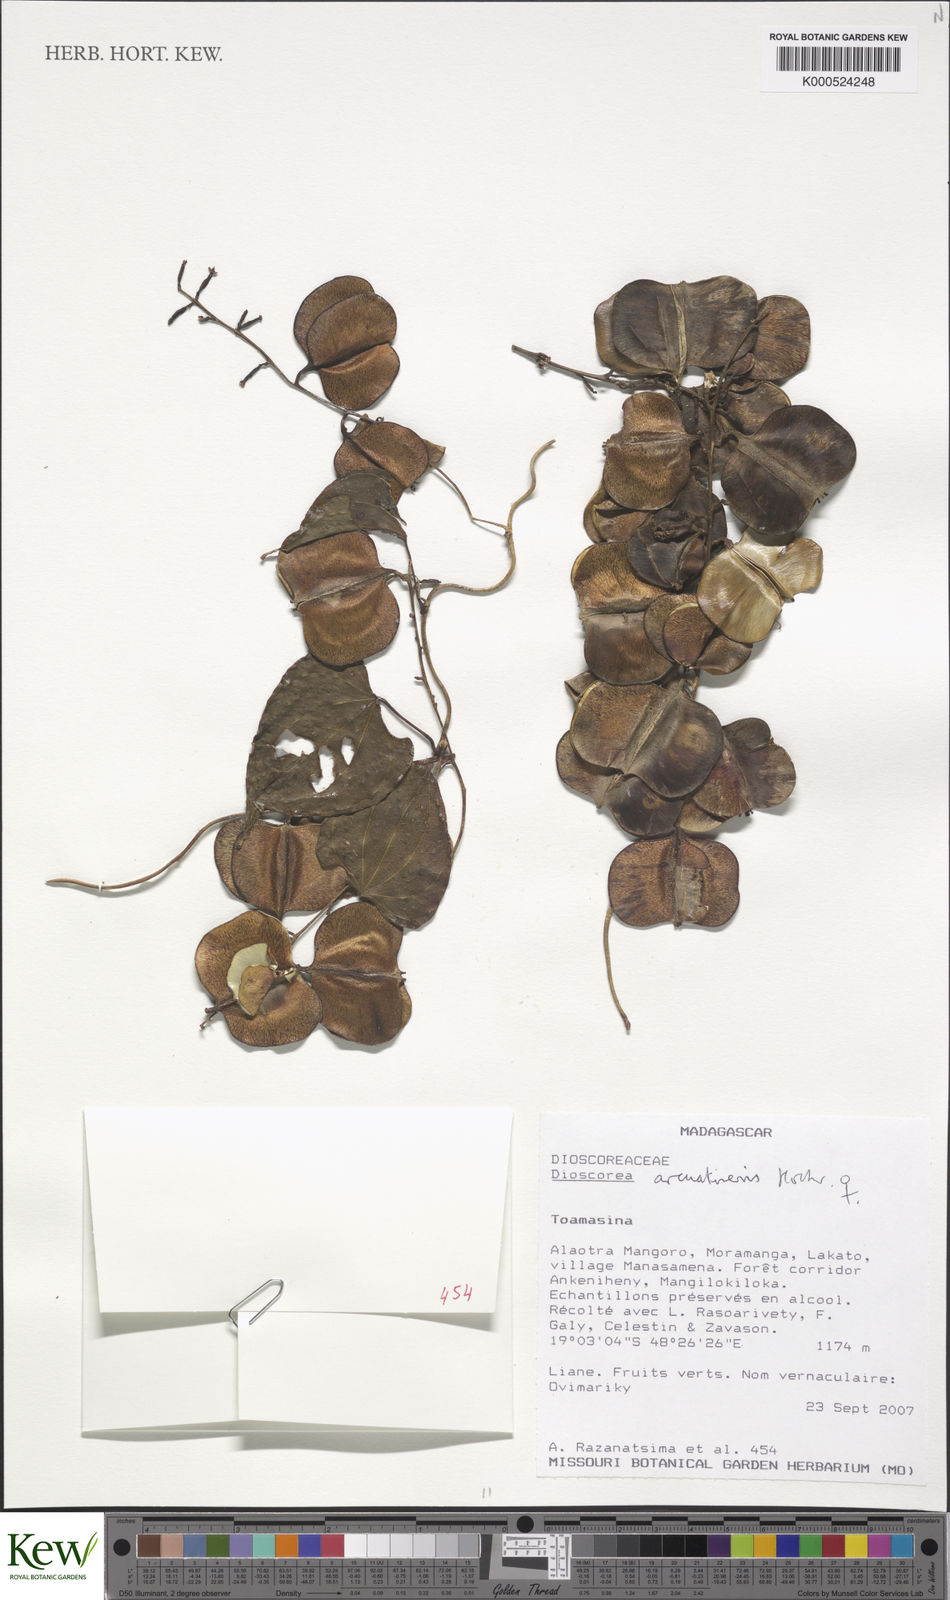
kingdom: Plantae
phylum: Tracheophyta
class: Liliopsida
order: Dioscoreales
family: Dioscoreaceae
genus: Dioscorea
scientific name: Dioscorea arcuatinervis
